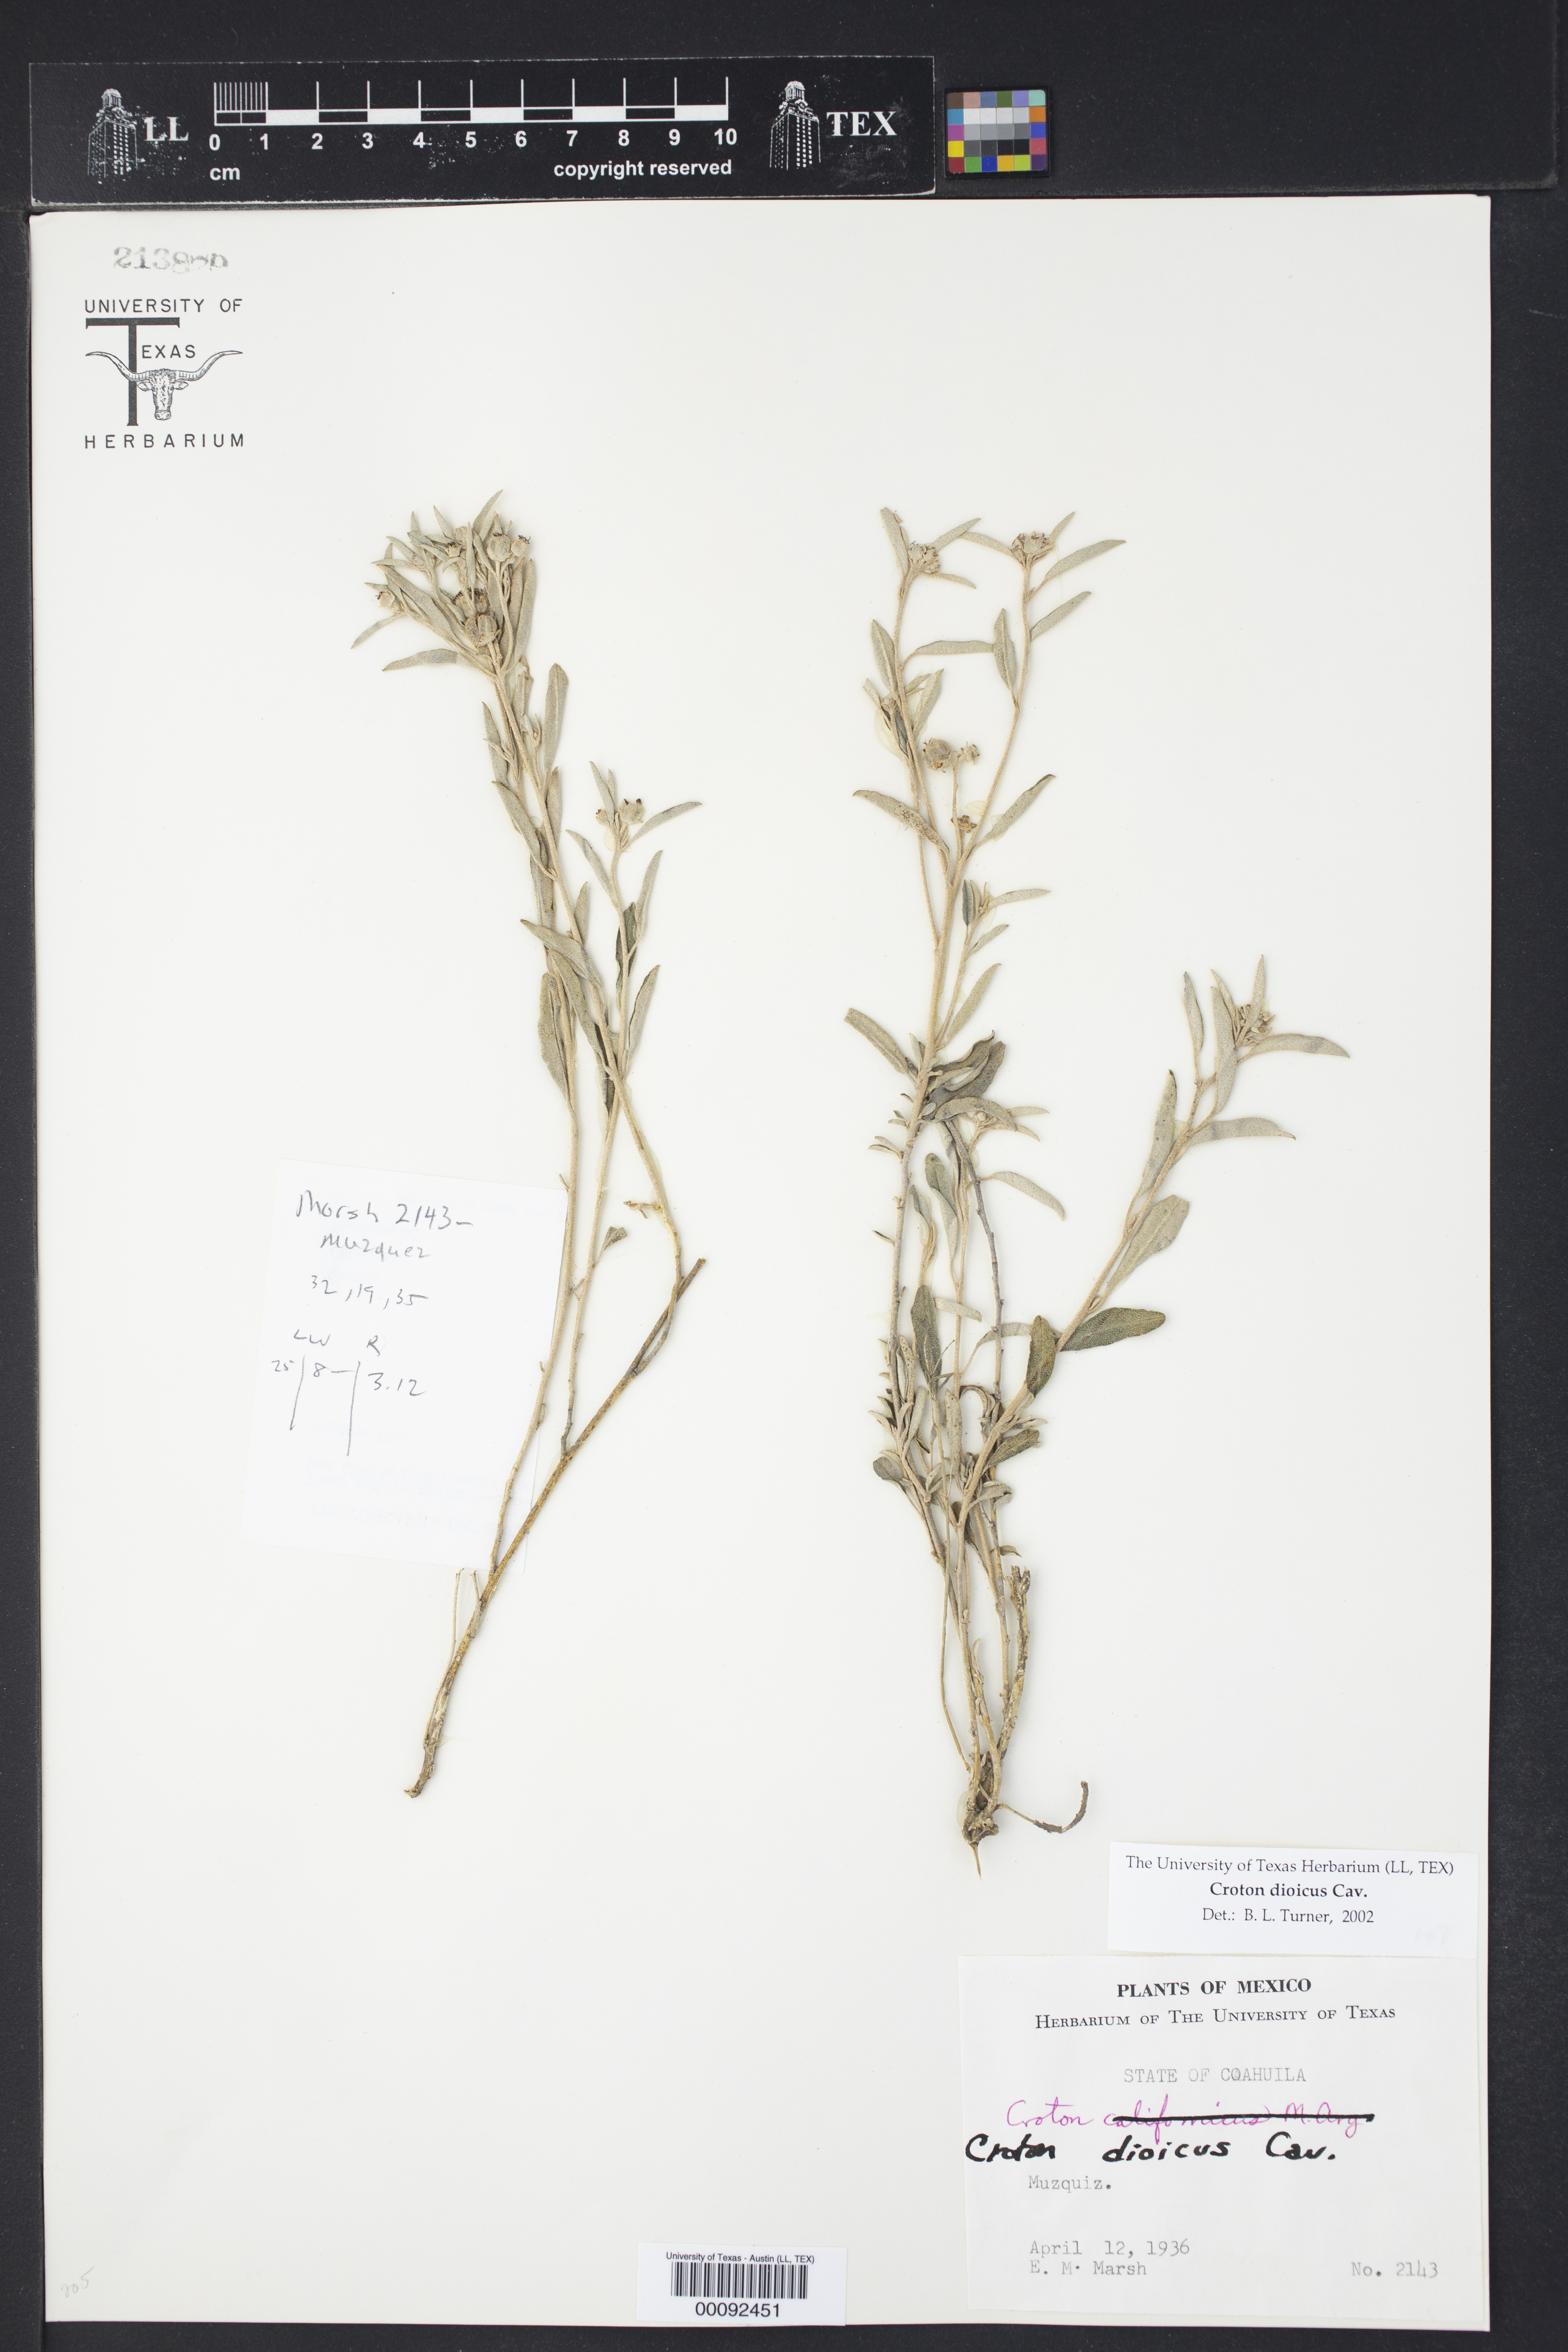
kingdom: Plantae
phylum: Tracheophyta
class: Magnoliopsida
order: Malpighiales
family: Euphorbiaceae
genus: Croton
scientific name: Croton dioicus
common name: Grassland croton
